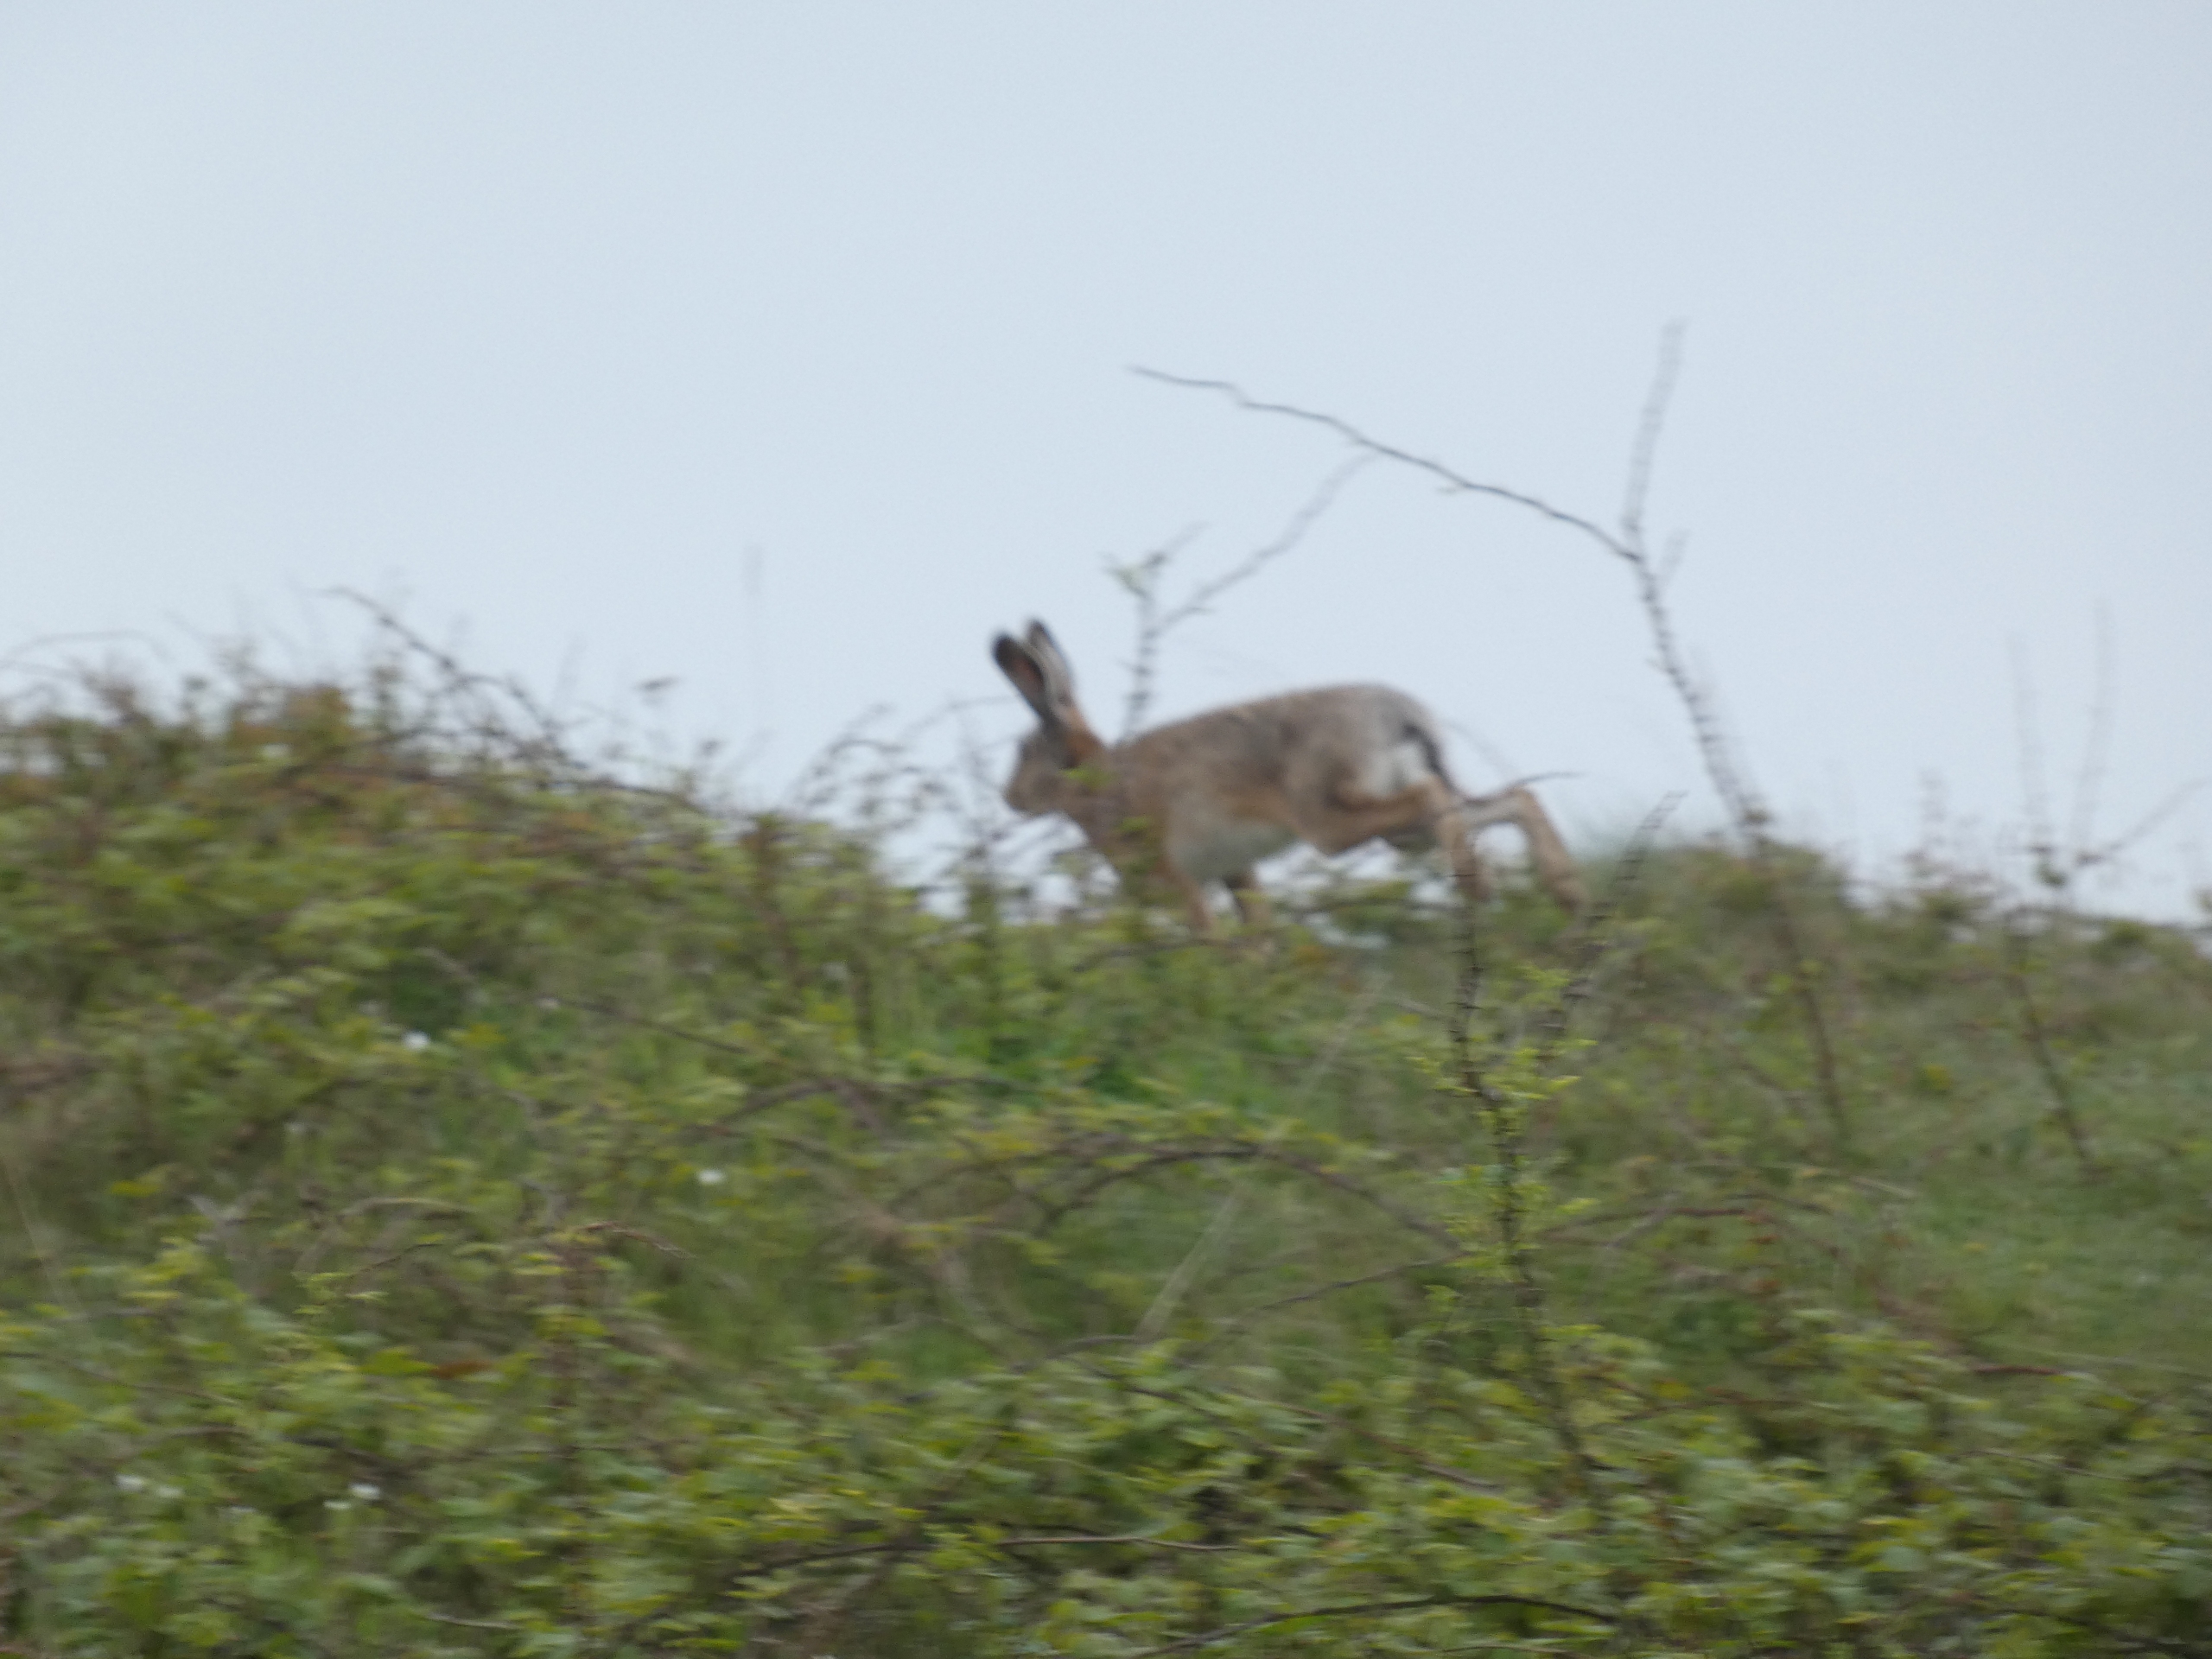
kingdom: Animalia
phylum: Chordata
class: Mammalia
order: Lagomorpha
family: Leporidae
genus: Lepus
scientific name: Lepus europaeus
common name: Hare
